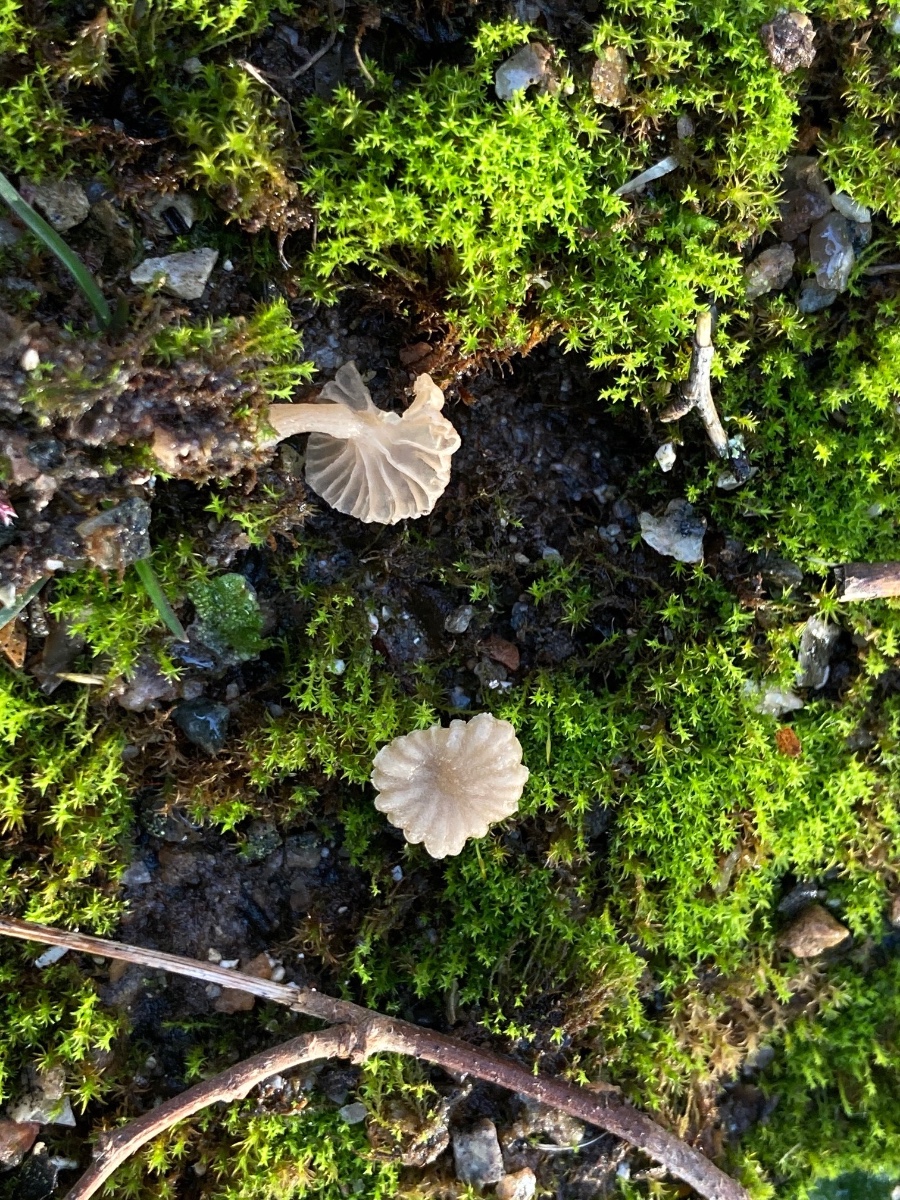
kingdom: Fungi
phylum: Basidiomycota
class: Agaricomycetes
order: Agaricales
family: Hygrophoraceae
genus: Arrhenia
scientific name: Arrhenia rickenii
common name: krusbladet fontænehat
